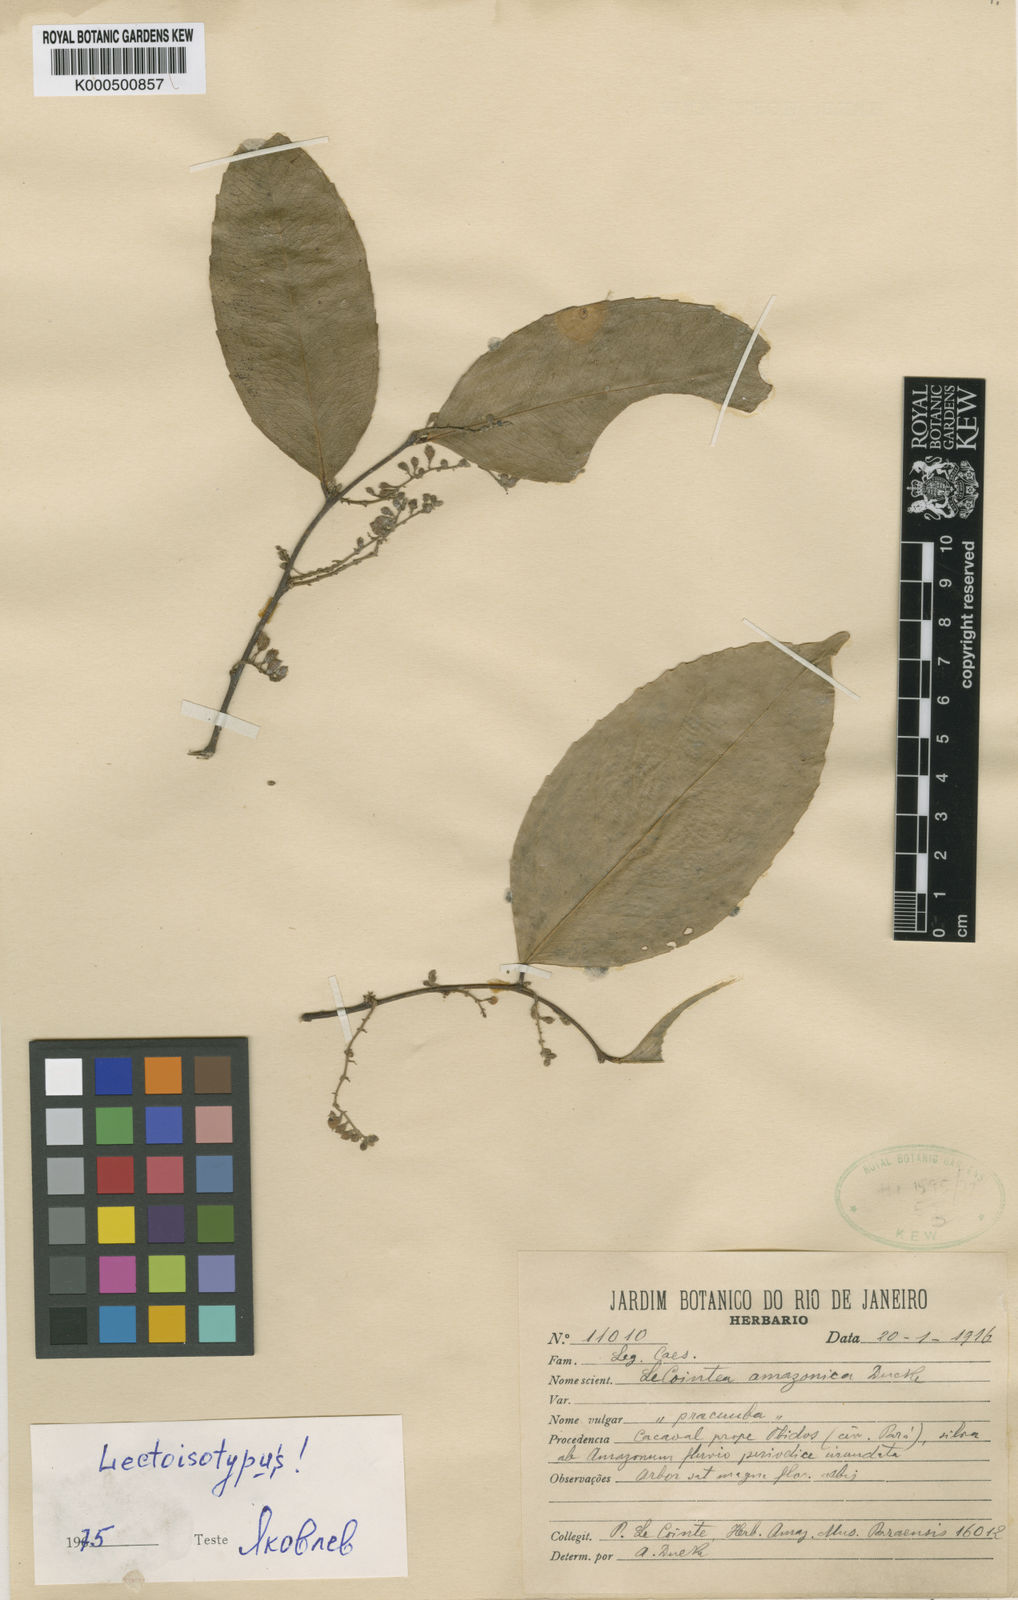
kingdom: Plantae
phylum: Tracheophyta
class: Magnoliopsida
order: Fabales
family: Fabaceae
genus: Lecointea
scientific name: Lecointea amazonica
